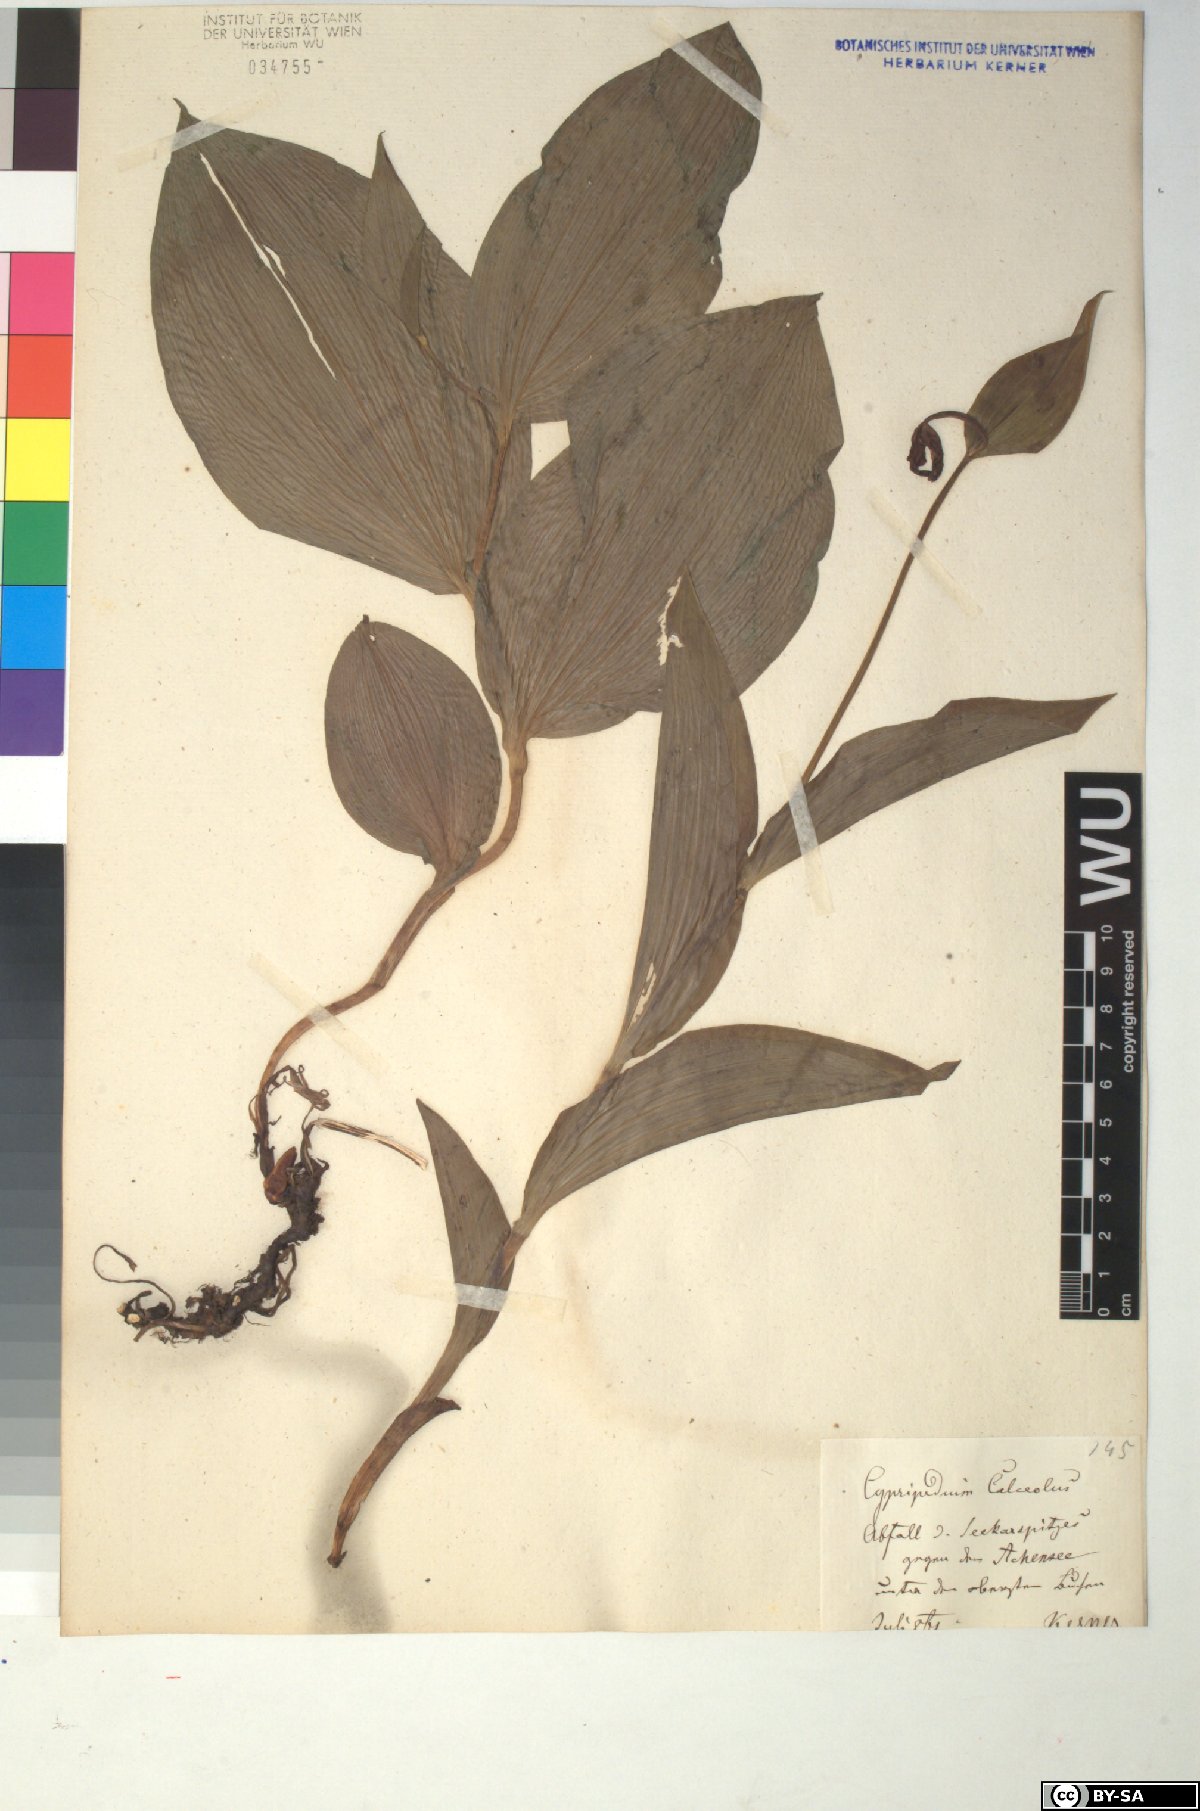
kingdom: Plantae
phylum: Tracheophyta
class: Liliopsida
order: Asparagales
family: Orchidaceae
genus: Cypripedium
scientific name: Cypripedium calceolus
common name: Lady's-slipper
